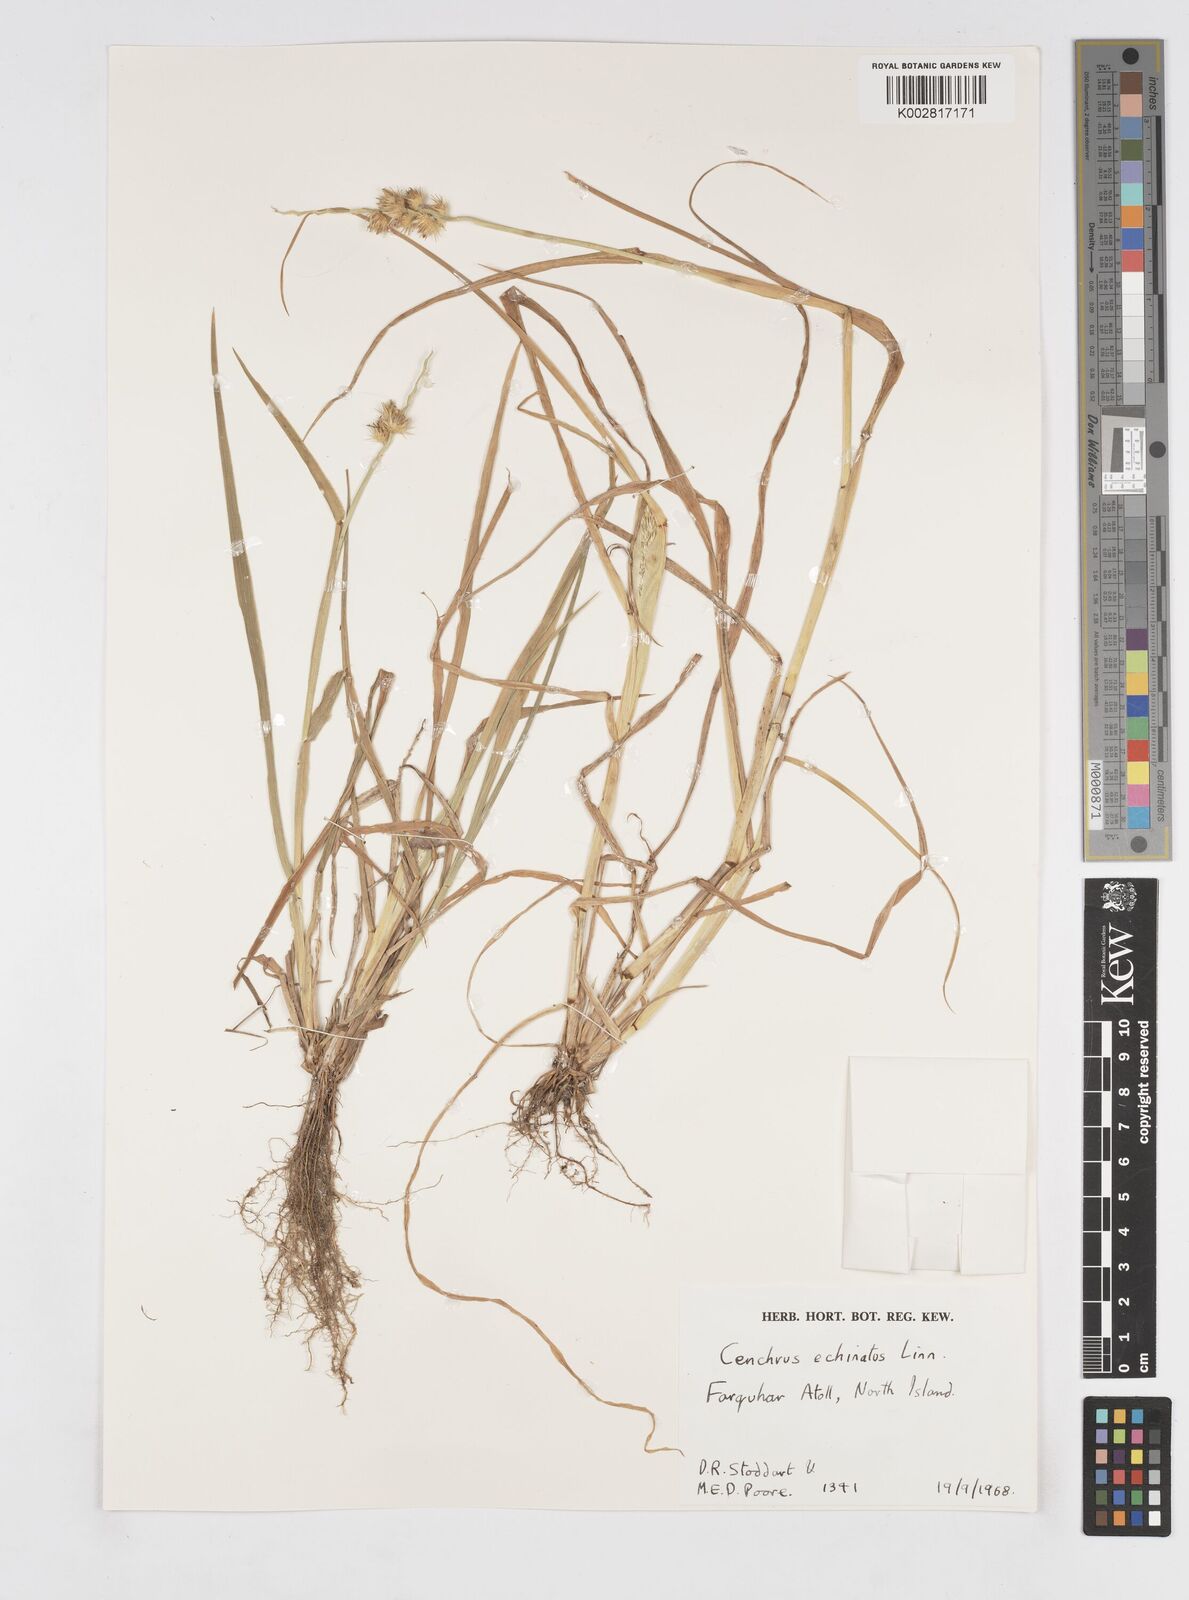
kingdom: Plantae
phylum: Tracheophyta
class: Liliopsida
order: Poales
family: Poaceae
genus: Cenchrus
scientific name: Cenchrus echinatus
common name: Southern sandbur
